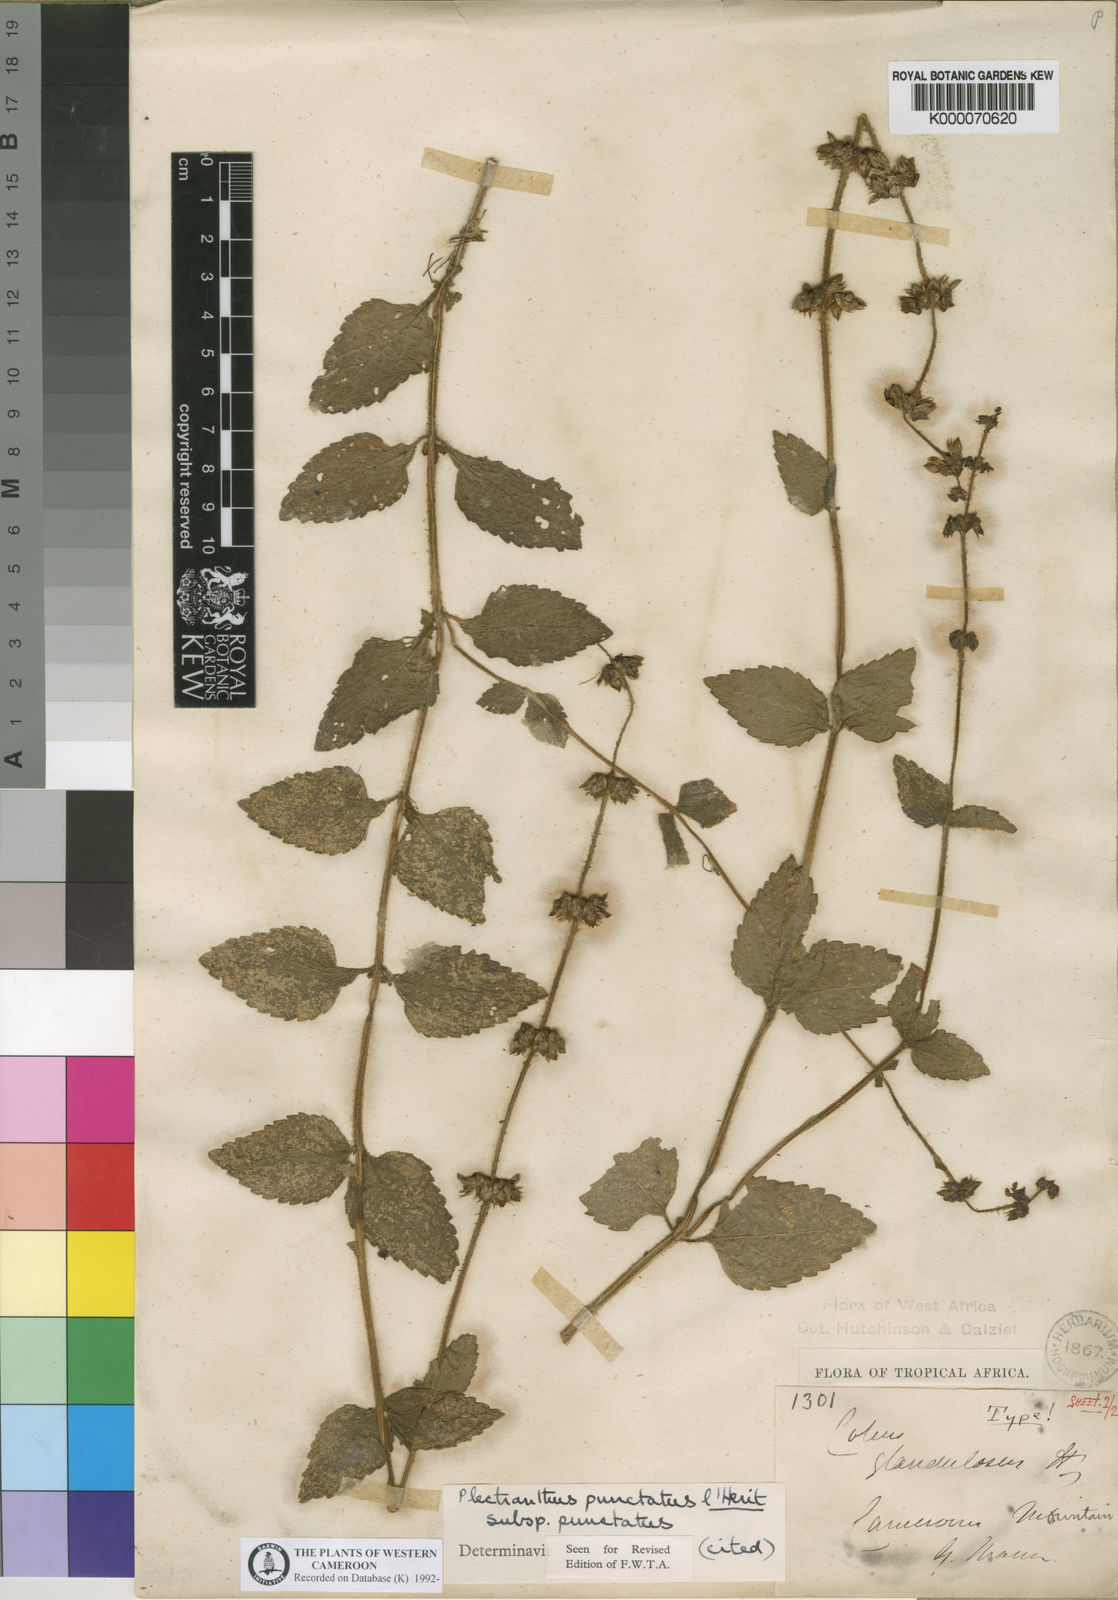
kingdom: Plantae
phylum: Tracheophyta
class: Magnoliopsida
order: Lamiales
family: Lamiaceae
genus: Plectranthus
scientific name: Plectranthus
